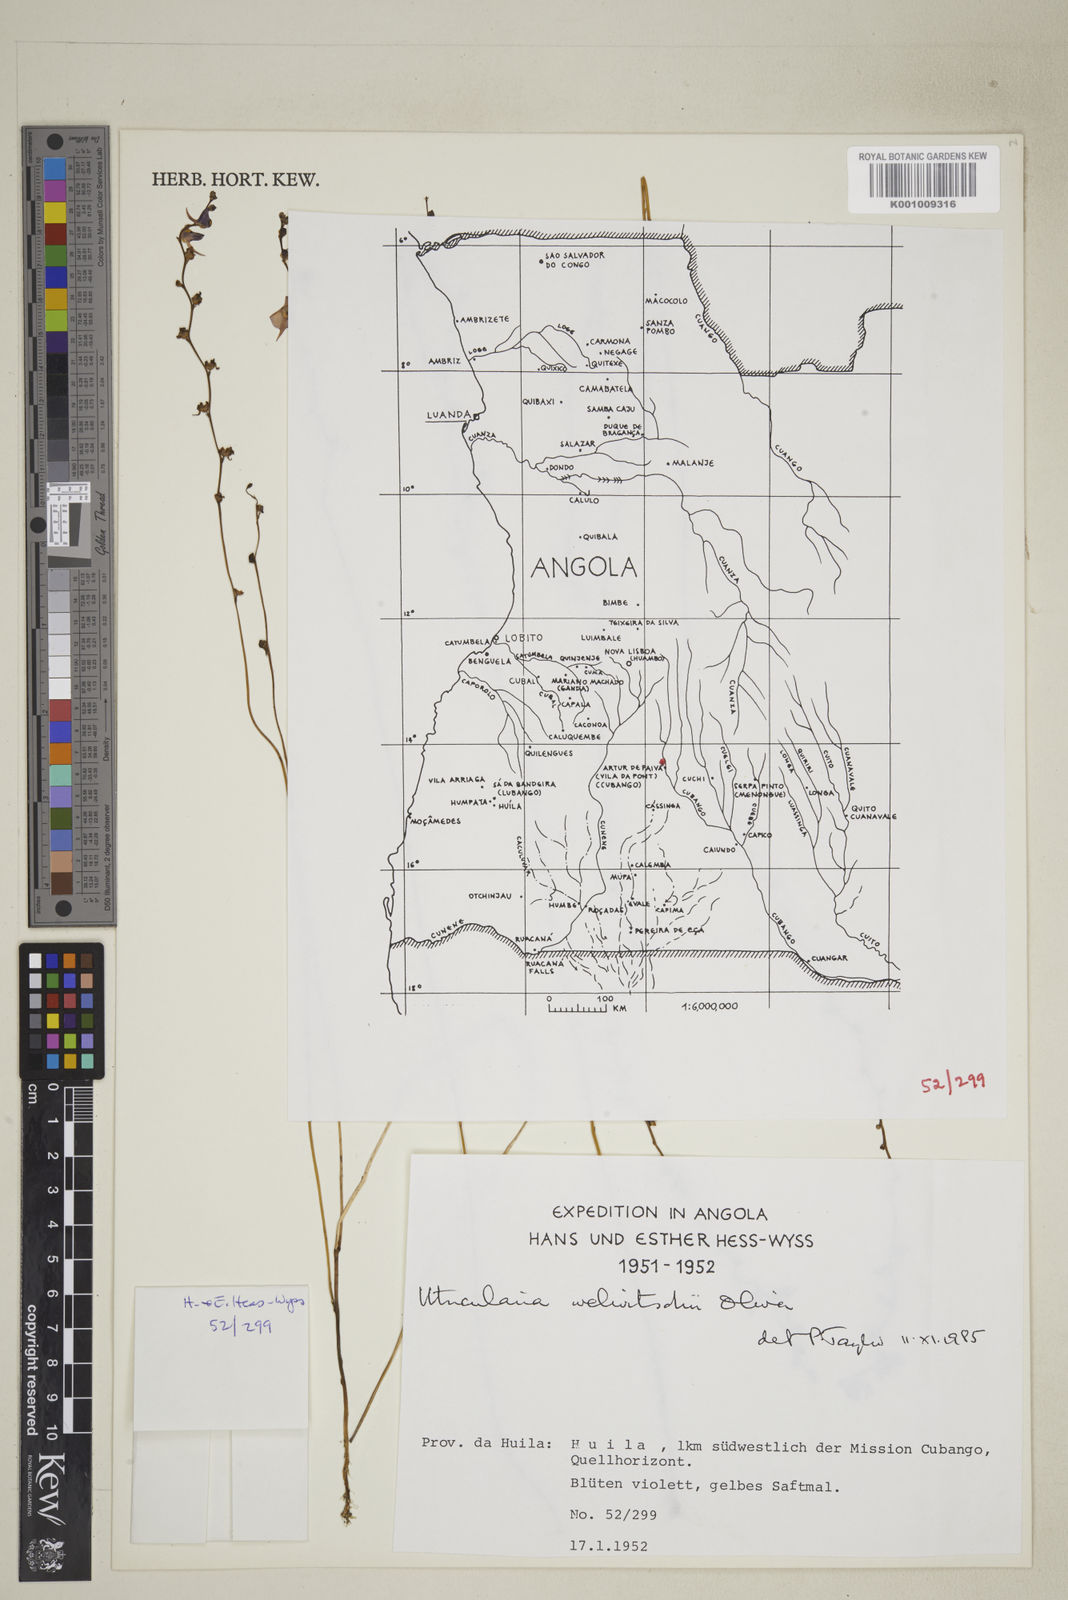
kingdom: Plantae
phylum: Tracheophyta
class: Magnoliopsida
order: Lamiales
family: Lentibulariaceae
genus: Utricularia
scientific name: Utricularia welwitschii
